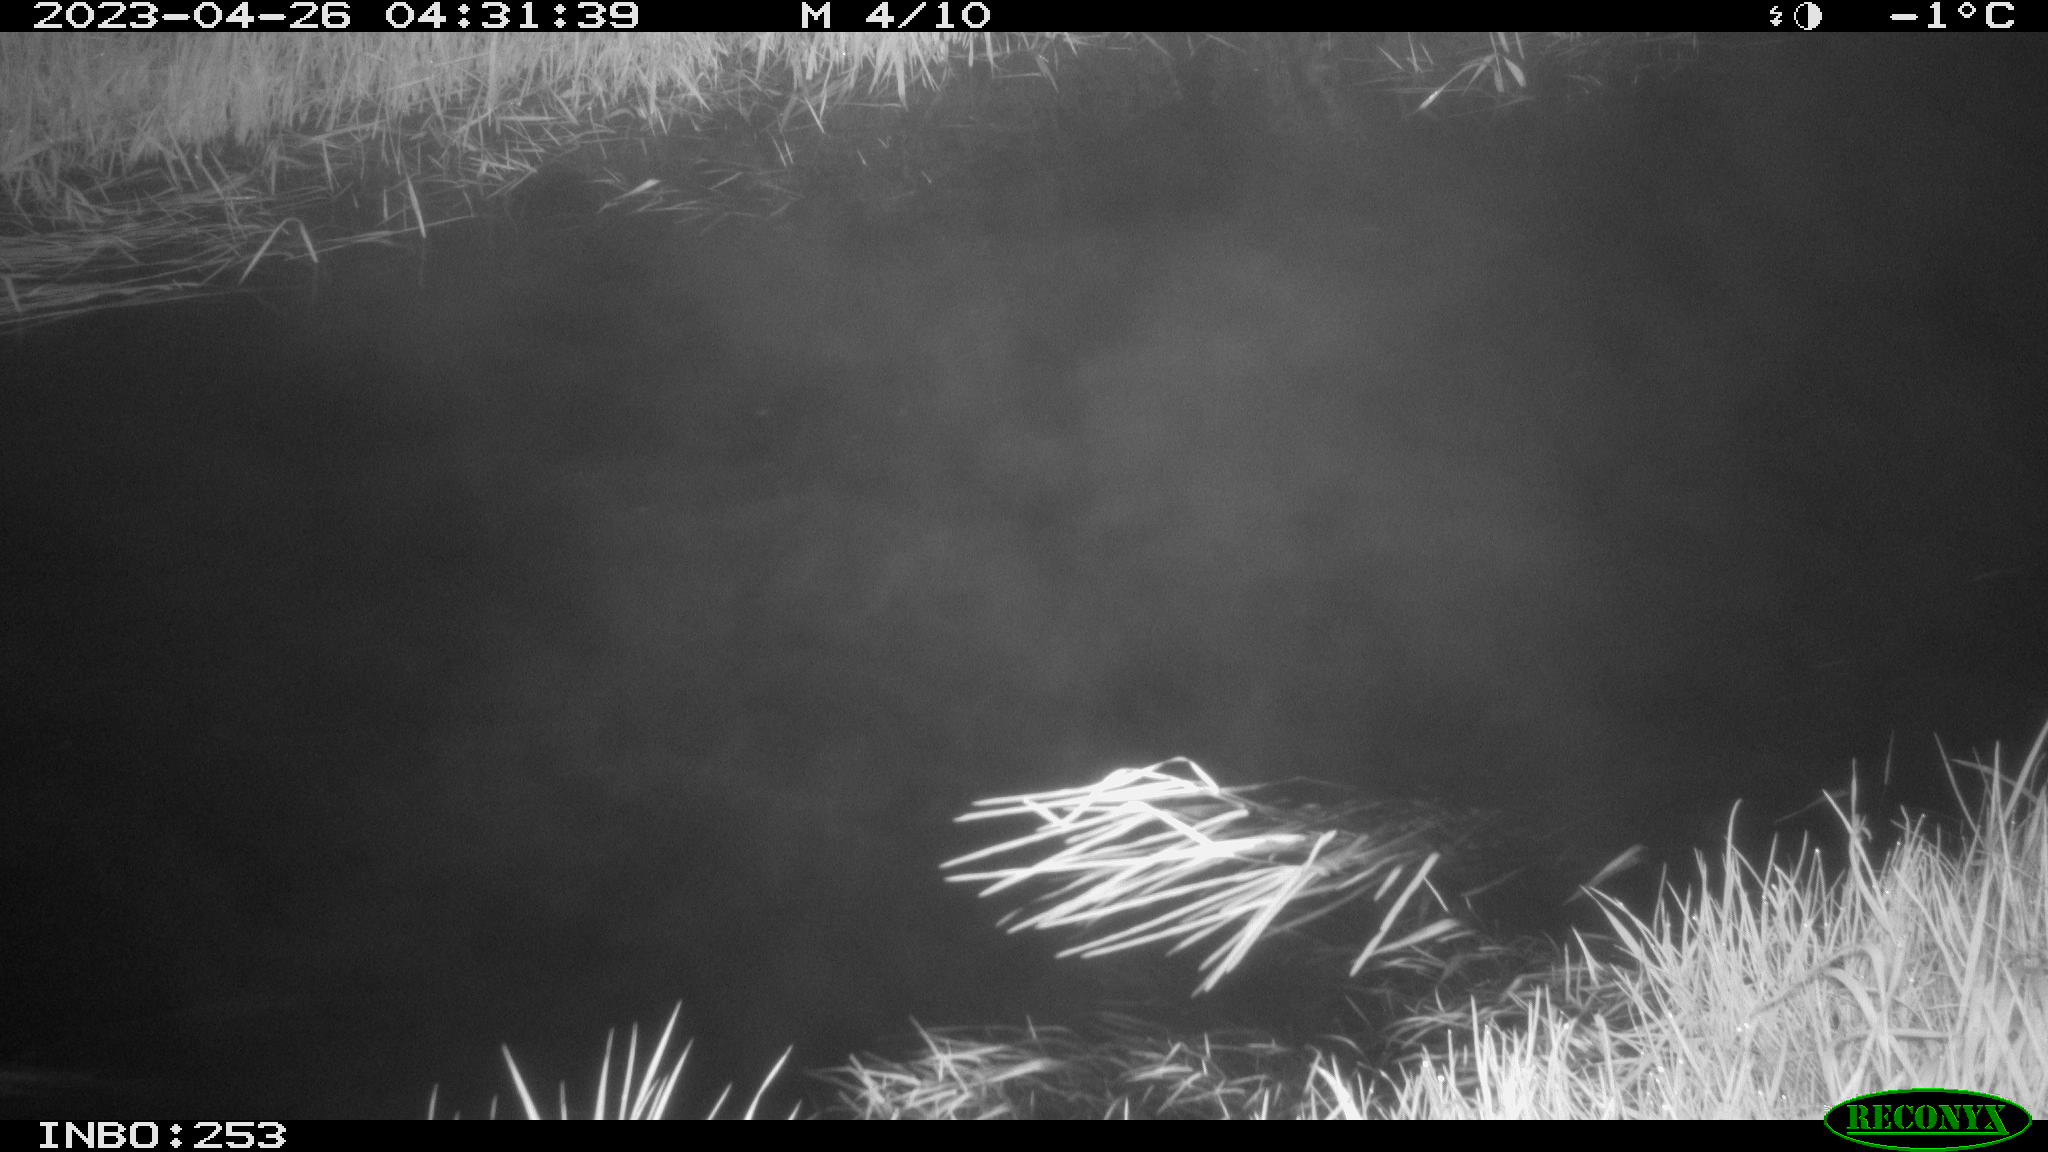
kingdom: Animalia
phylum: Chordata
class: Aves
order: Anseriformes
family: Anatidae
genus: Anas
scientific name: Anas
